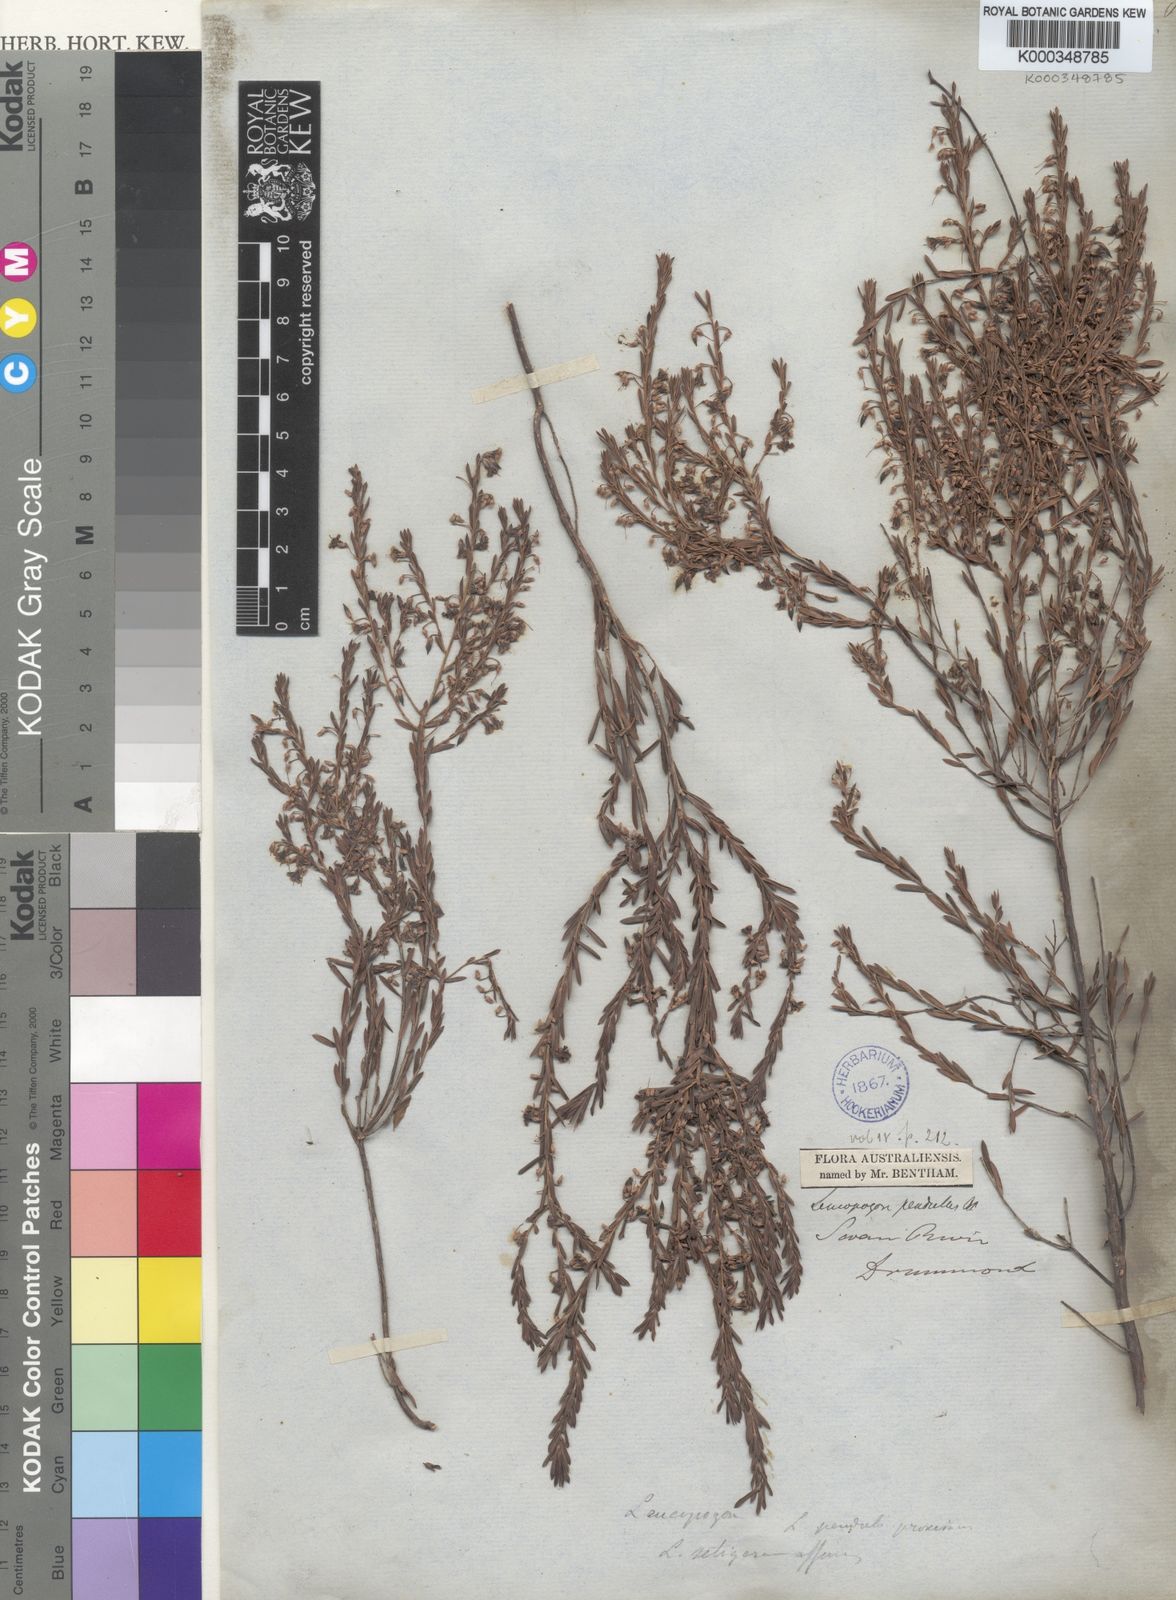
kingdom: Plantae
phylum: Tracheophyta
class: Magnoliopsida
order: Ericales
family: Ericaceae
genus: Styphelia
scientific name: Styphelia pendula
